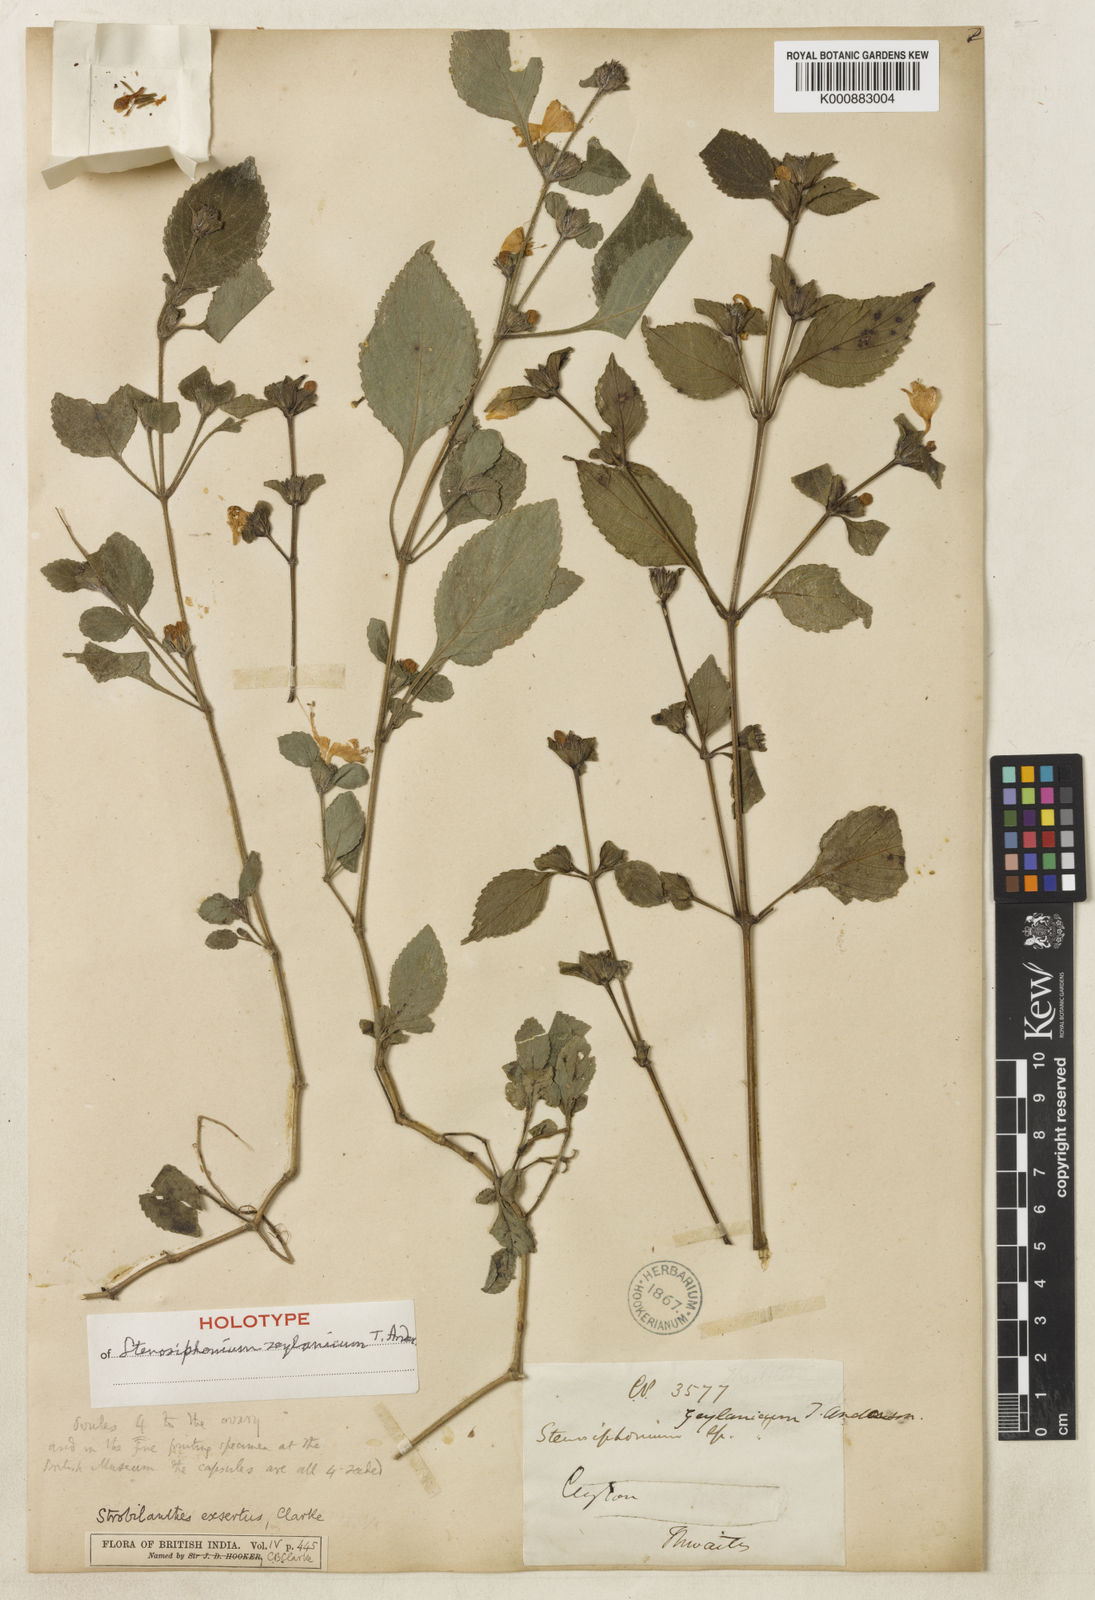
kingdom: Plantae
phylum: Tracheophyta
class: Magnoliopsida
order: Lamiales
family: Acanthaceae
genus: Strobilanthes
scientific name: Strobilanthes exserta
